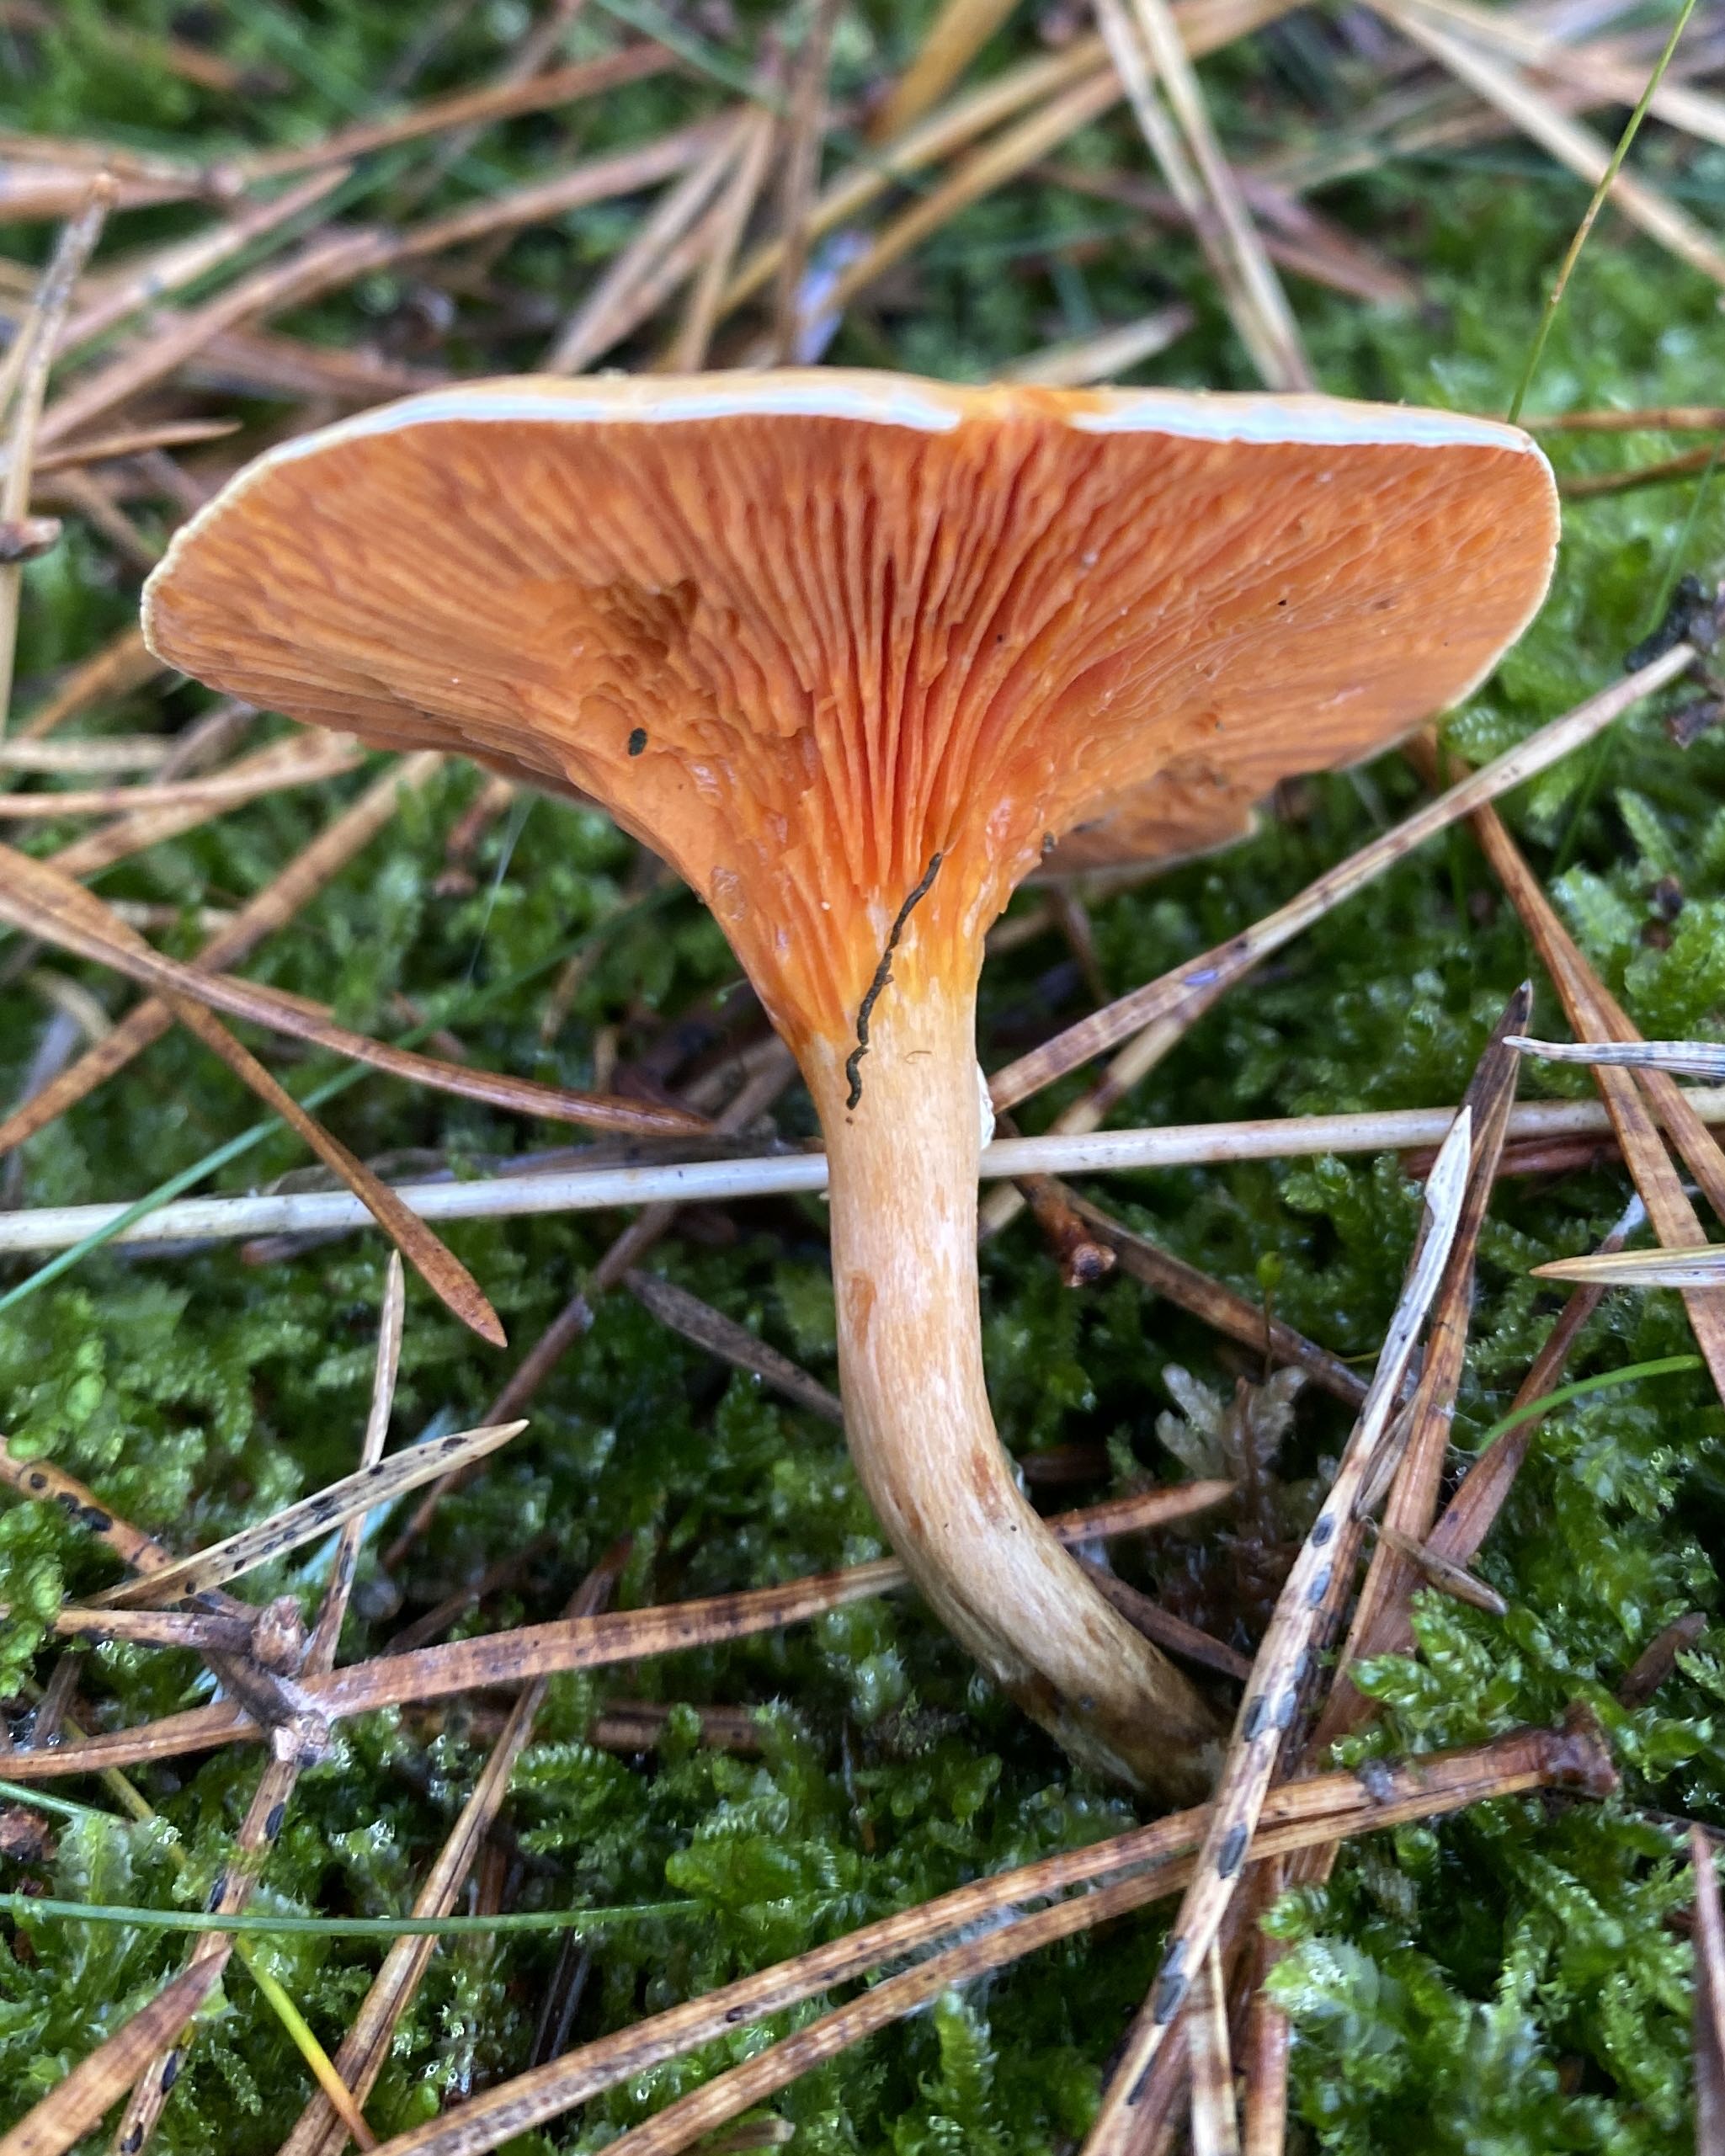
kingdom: Fungi
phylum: Basidiomycota
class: Agaricomycetes
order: Boletales
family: Hygrophoropsidaceae
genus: Hygrophoropsis
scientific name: Hygrophoropsis aurantiaca
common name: almindelig orangekantarel
